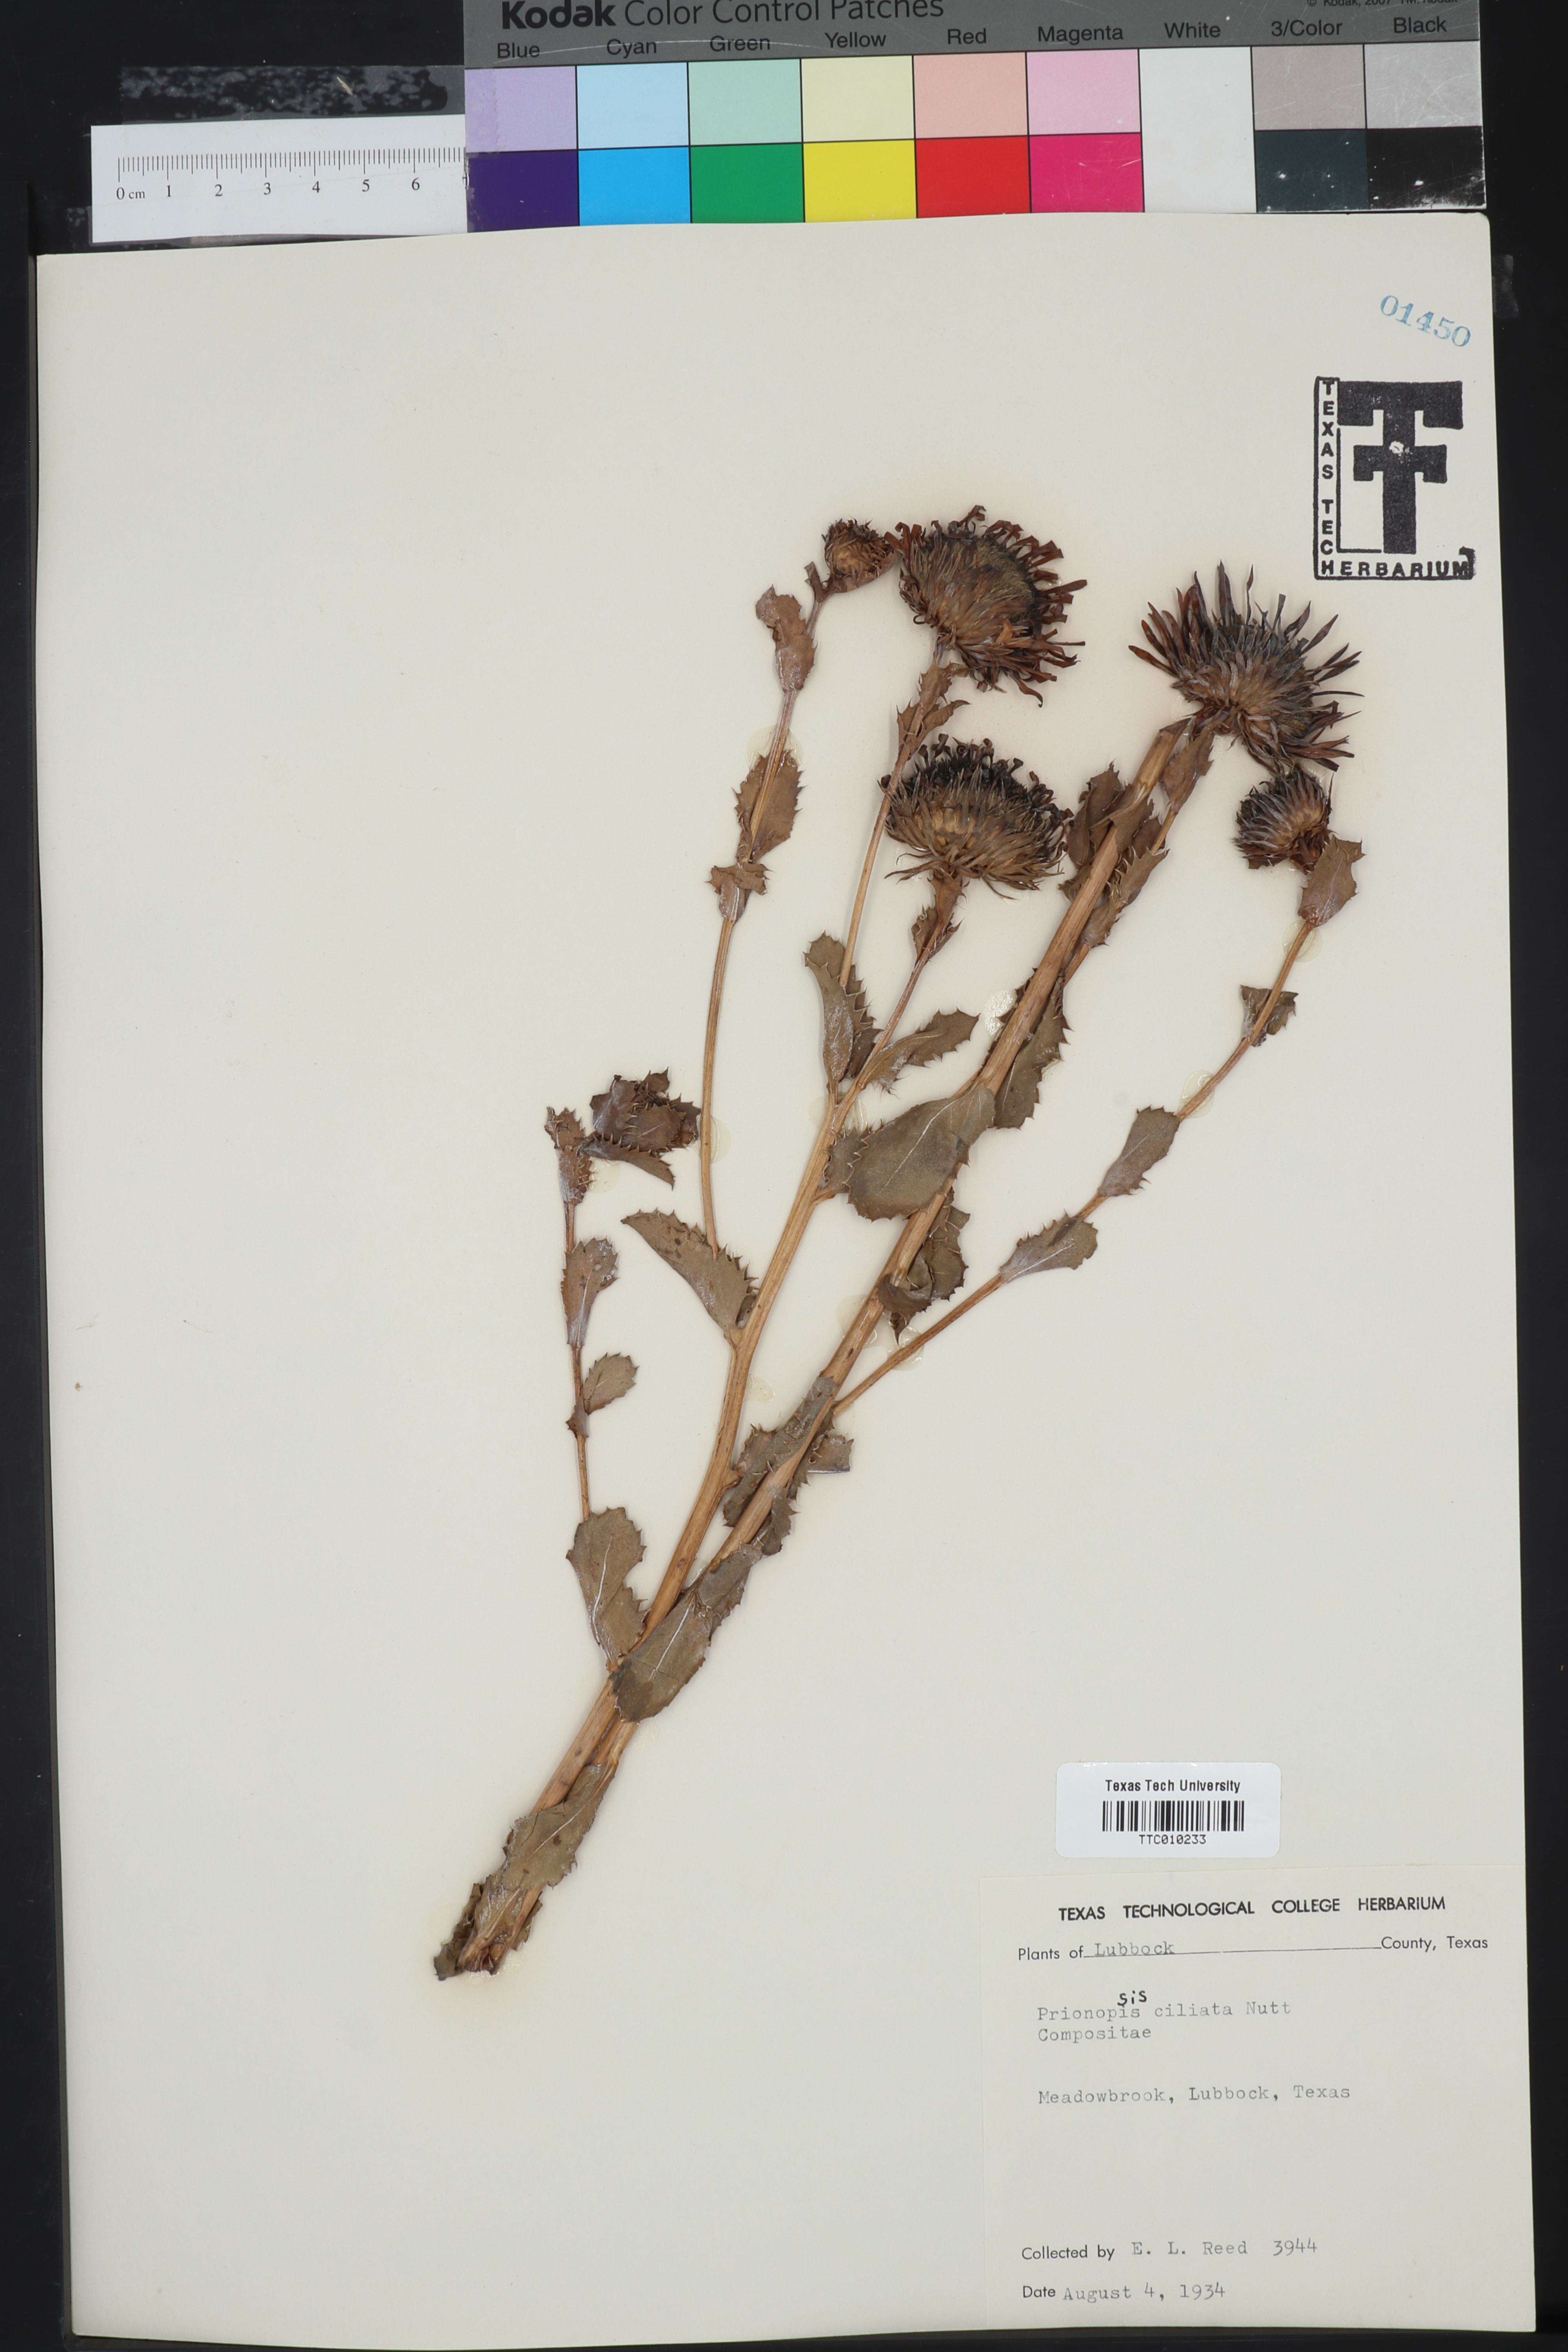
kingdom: Plantae
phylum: Tracheophyta
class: Magnoliopsida
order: Asterales
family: Asteraceae
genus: Grindelia
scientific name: Grindelia ciliata
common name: Goldenweed
